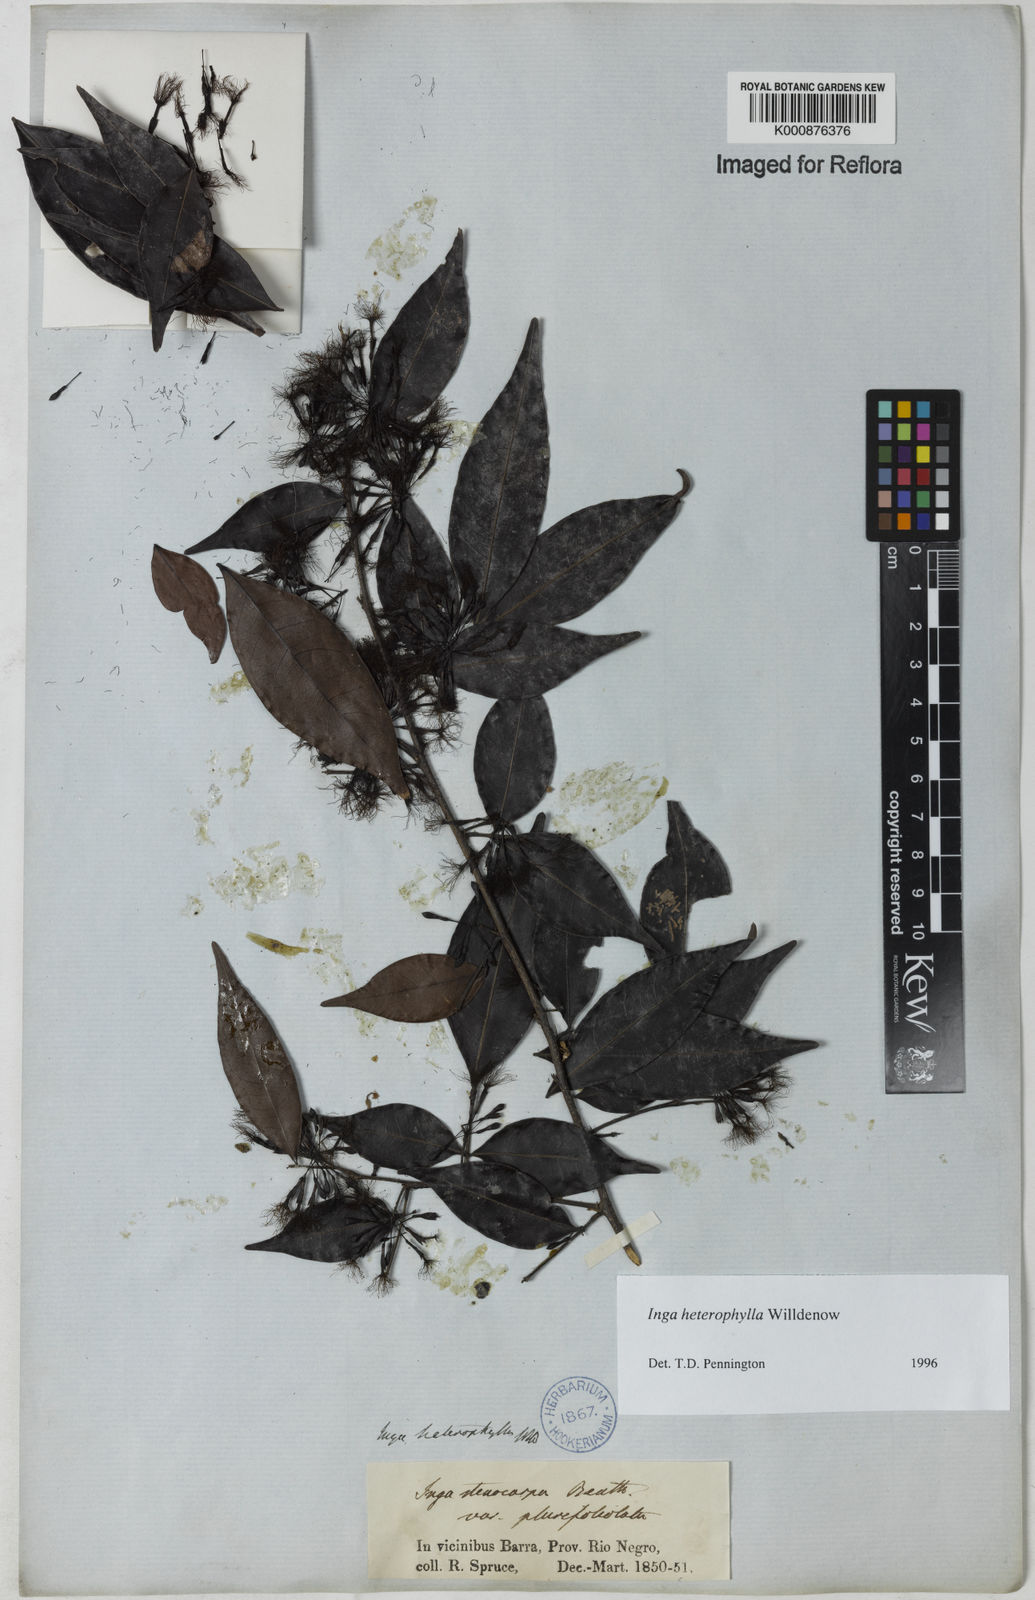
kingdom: Plantae
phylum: Tracheophyta
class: Magnoliopsida
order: Fabales
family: Fabaceae
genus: Inga
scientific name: Inga heterophylla
